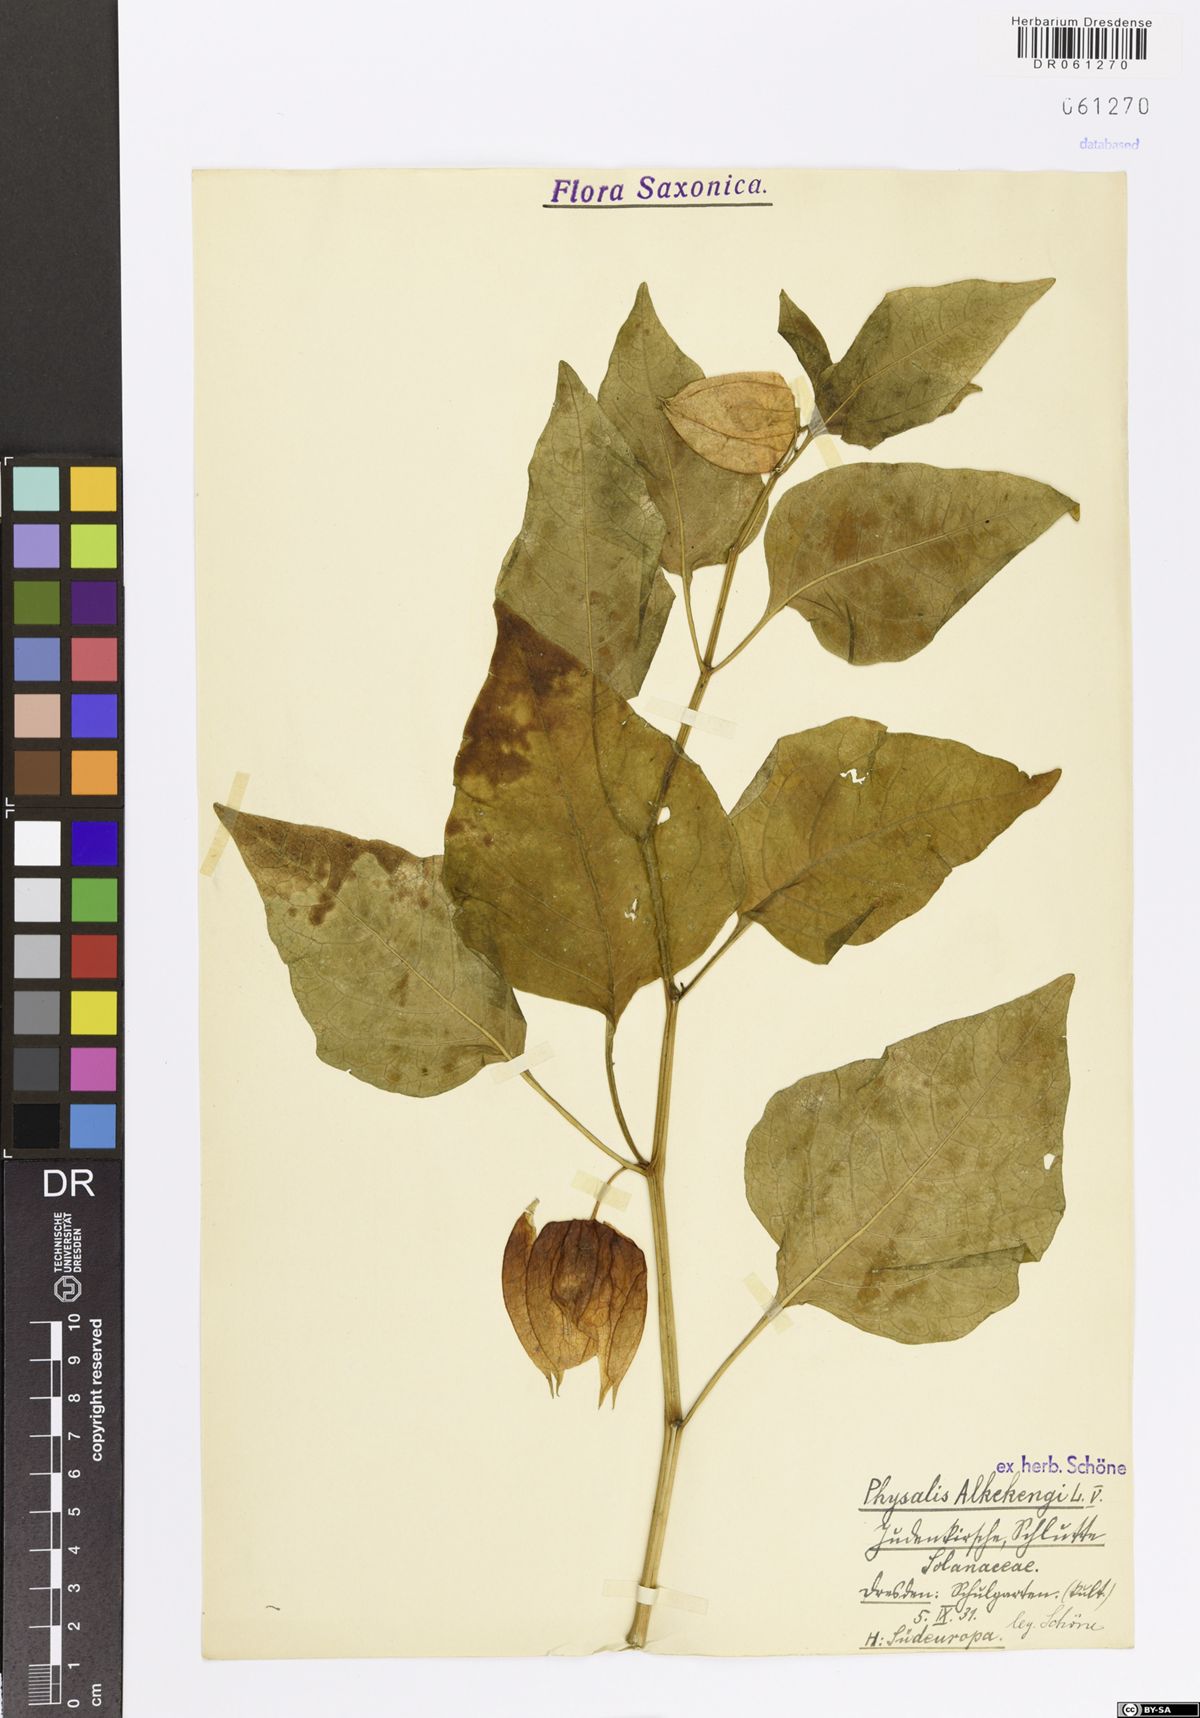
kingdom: Plantae
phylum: Tracheophyta
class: Magnoliopsida
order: Solanales
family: Solanaceae
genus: Alkekengi
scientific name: Alkekengi officinarum
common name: Japanese-lantern
